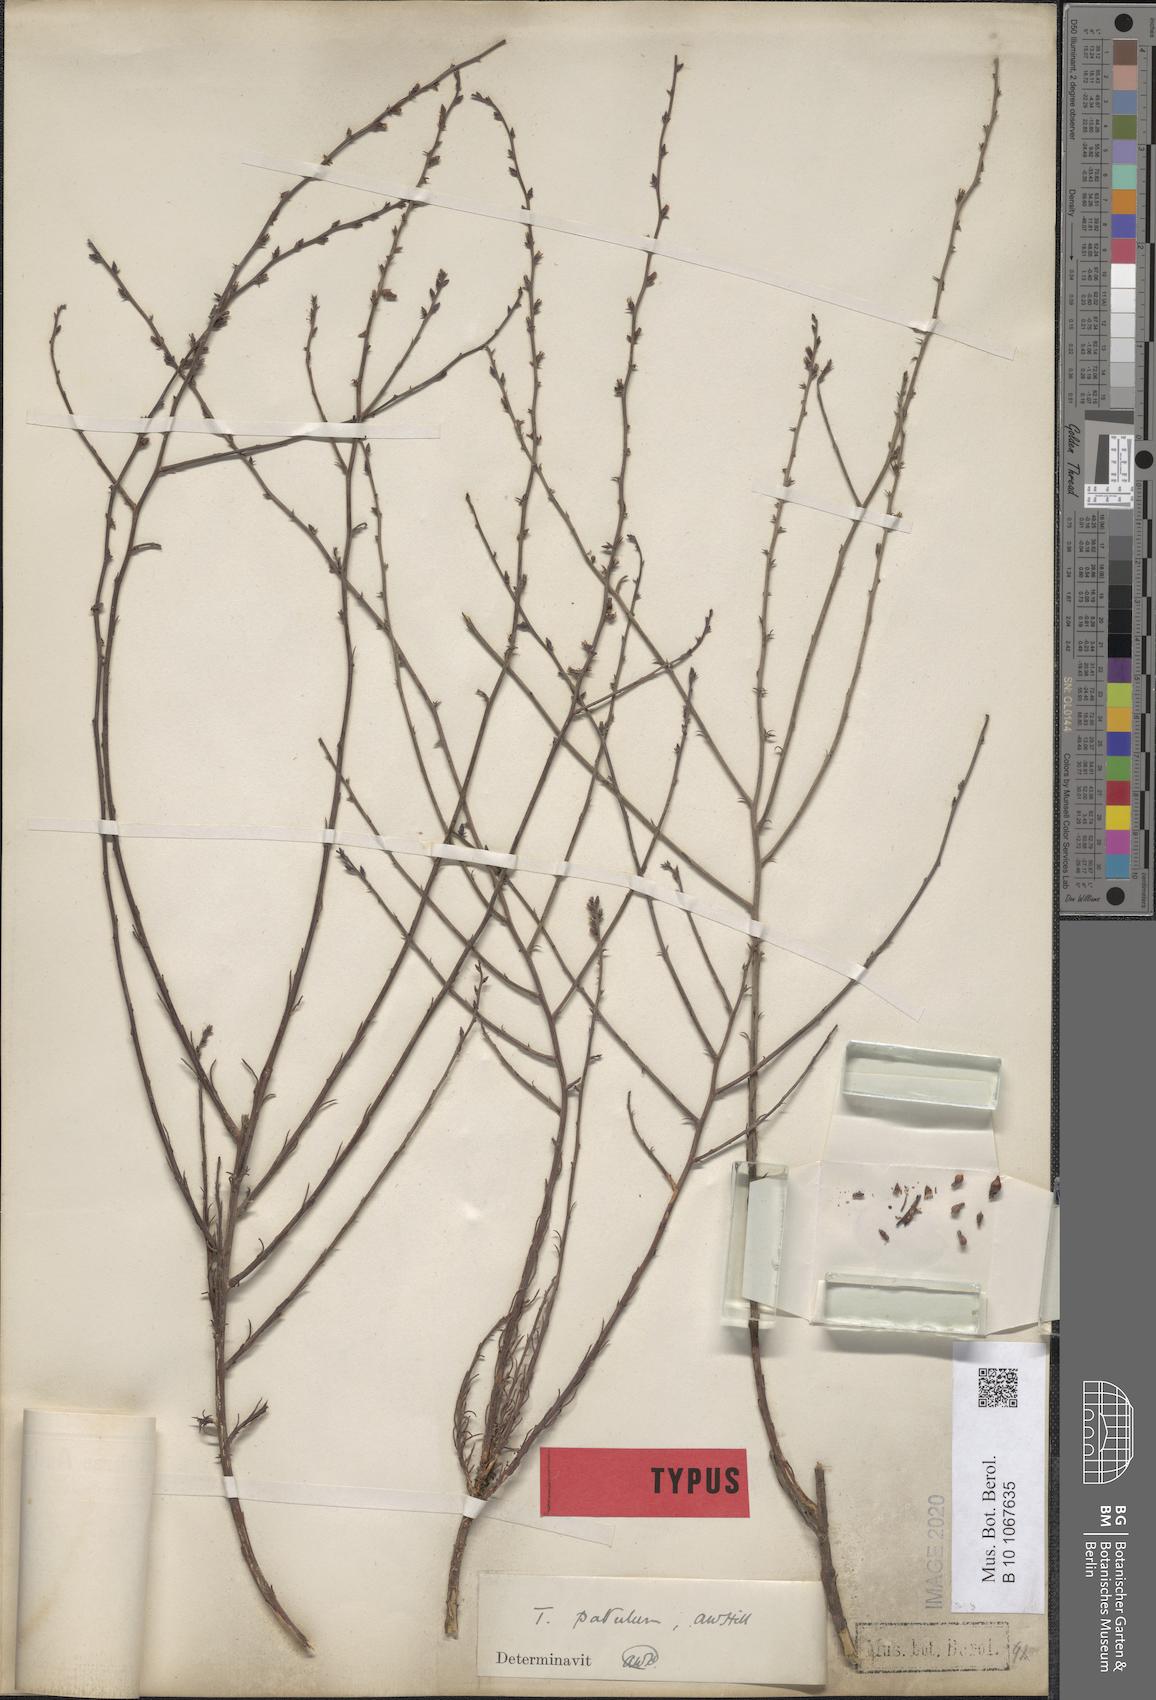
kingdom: Plantae
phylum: Tracheophyta
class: Magnoliopsida
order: Santalales
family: Thesiaceae
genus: Thesium
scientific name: Thesium patulum
